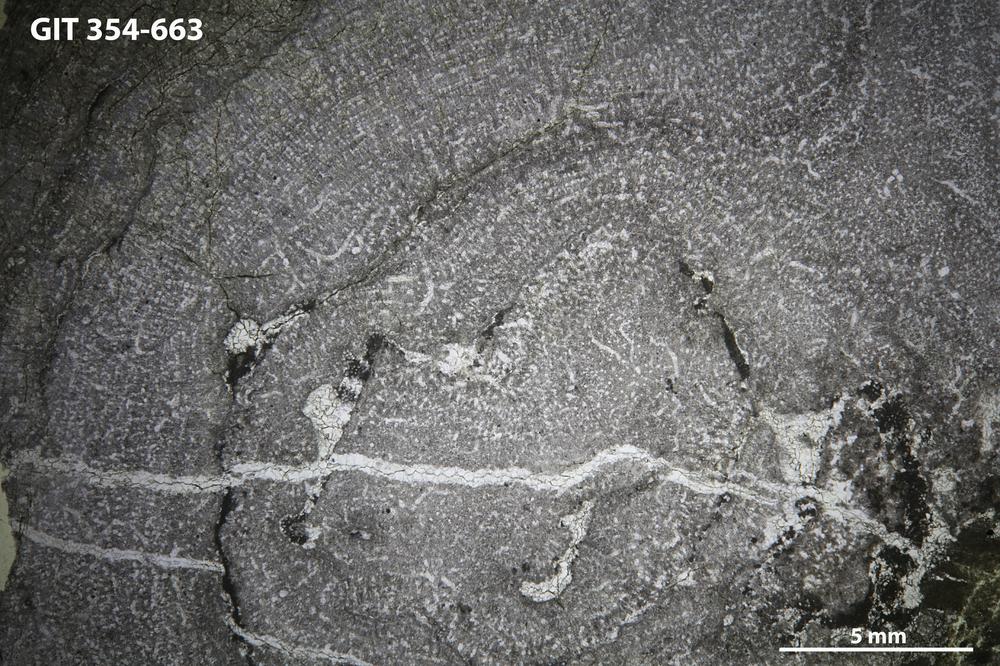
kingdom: Animalia
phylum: Porifera
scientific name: Porifera
